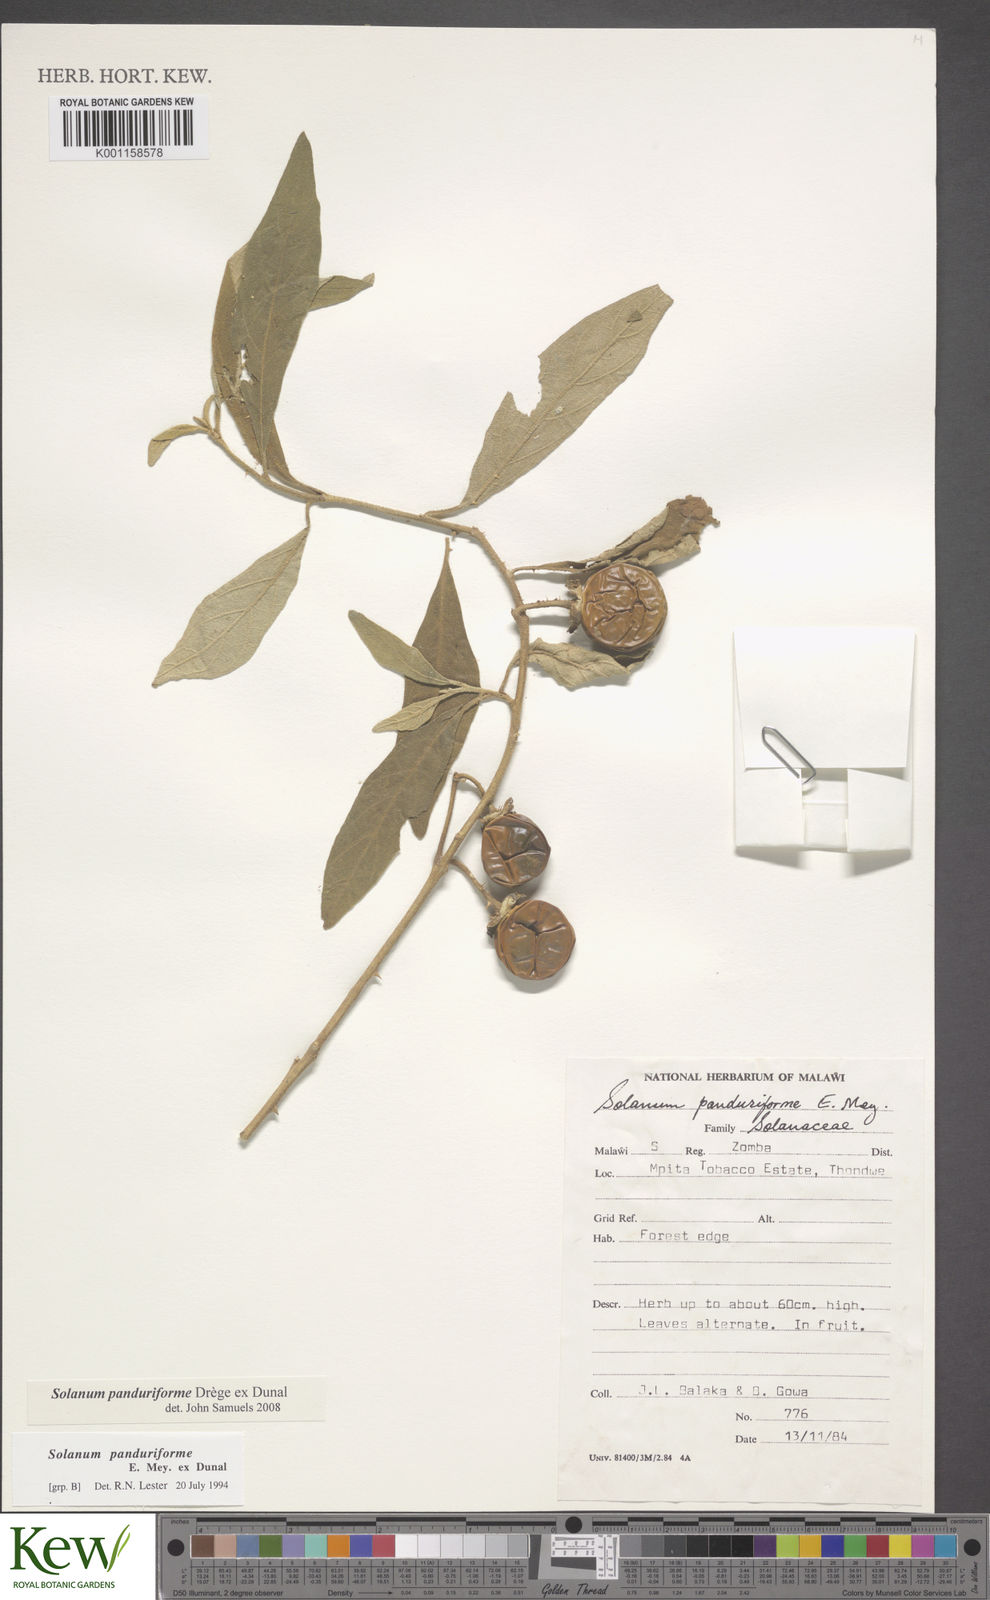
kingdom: Plantae
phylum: Tracheophyta
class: Magnoliopsida
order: Solanales
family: Solanaceae
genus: Solanum
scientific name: Solanum campylacanthum
